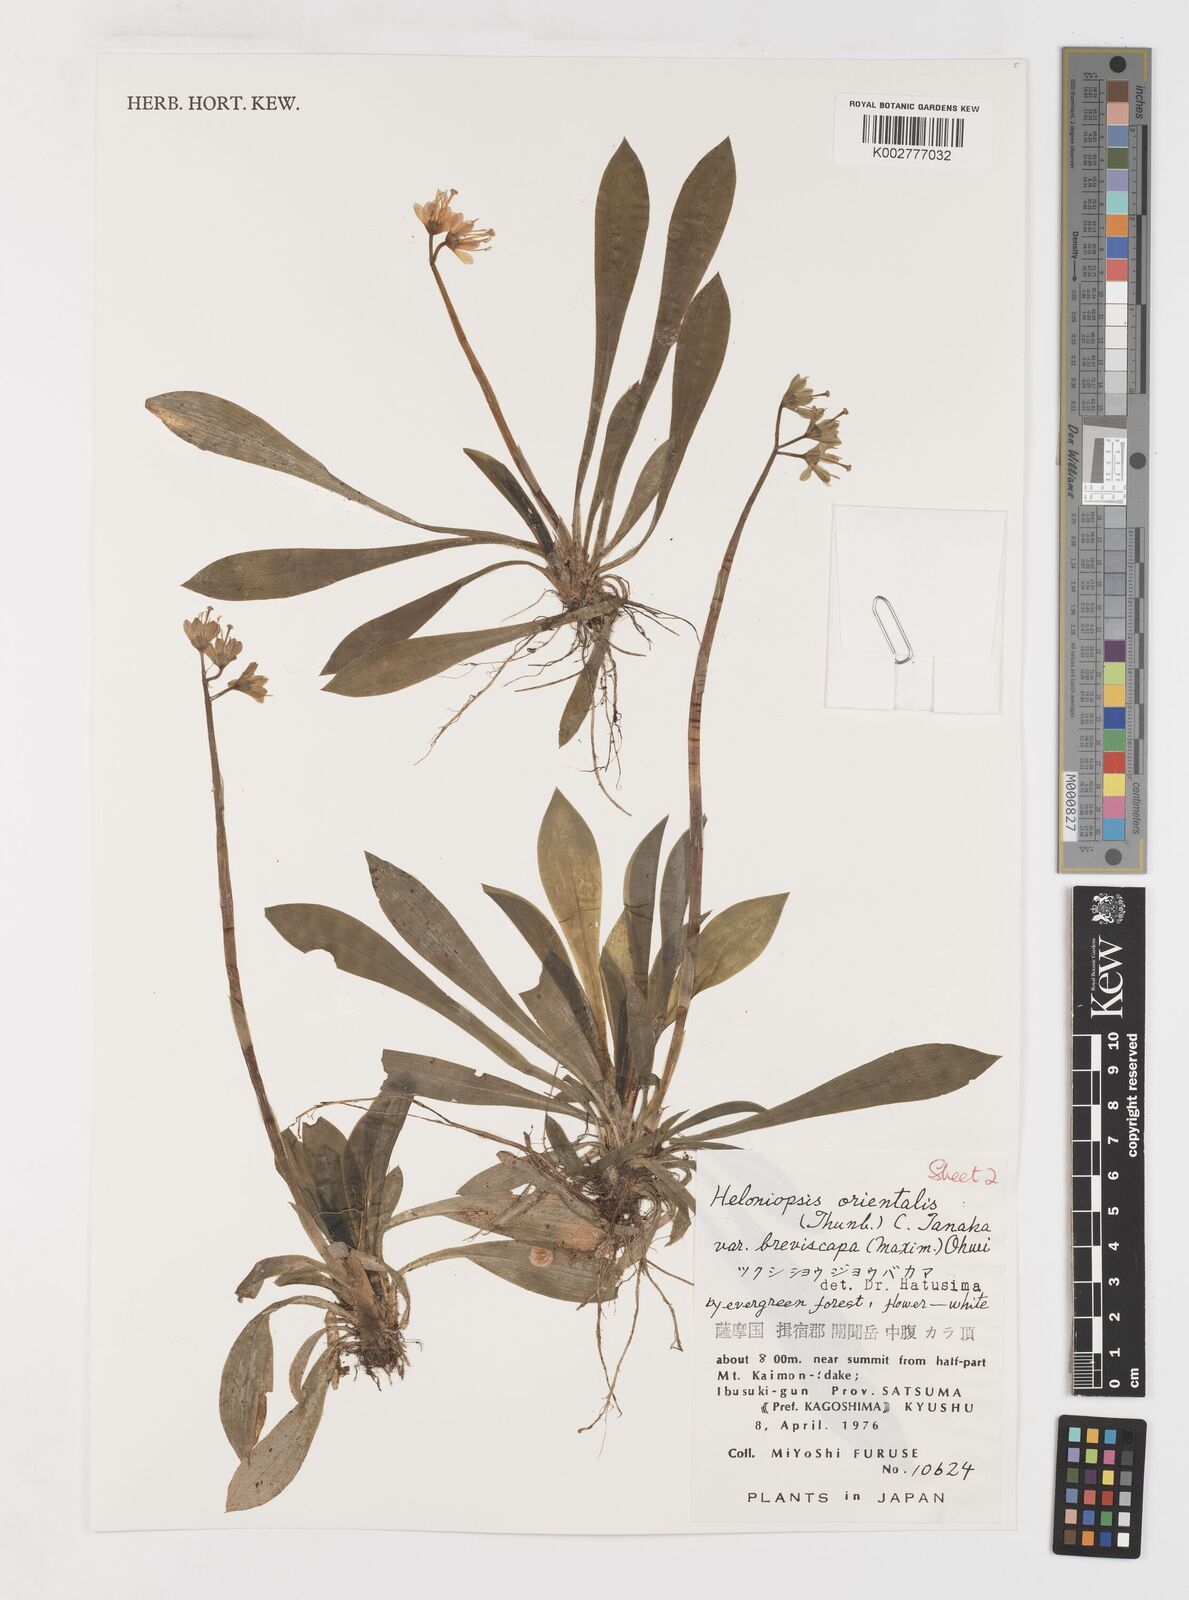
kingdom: Plantae
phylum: Tracheophyta
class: Liliopsida
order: Liliales
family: Melanthiaceae
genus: Helonias
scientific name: Helonias orientalis
